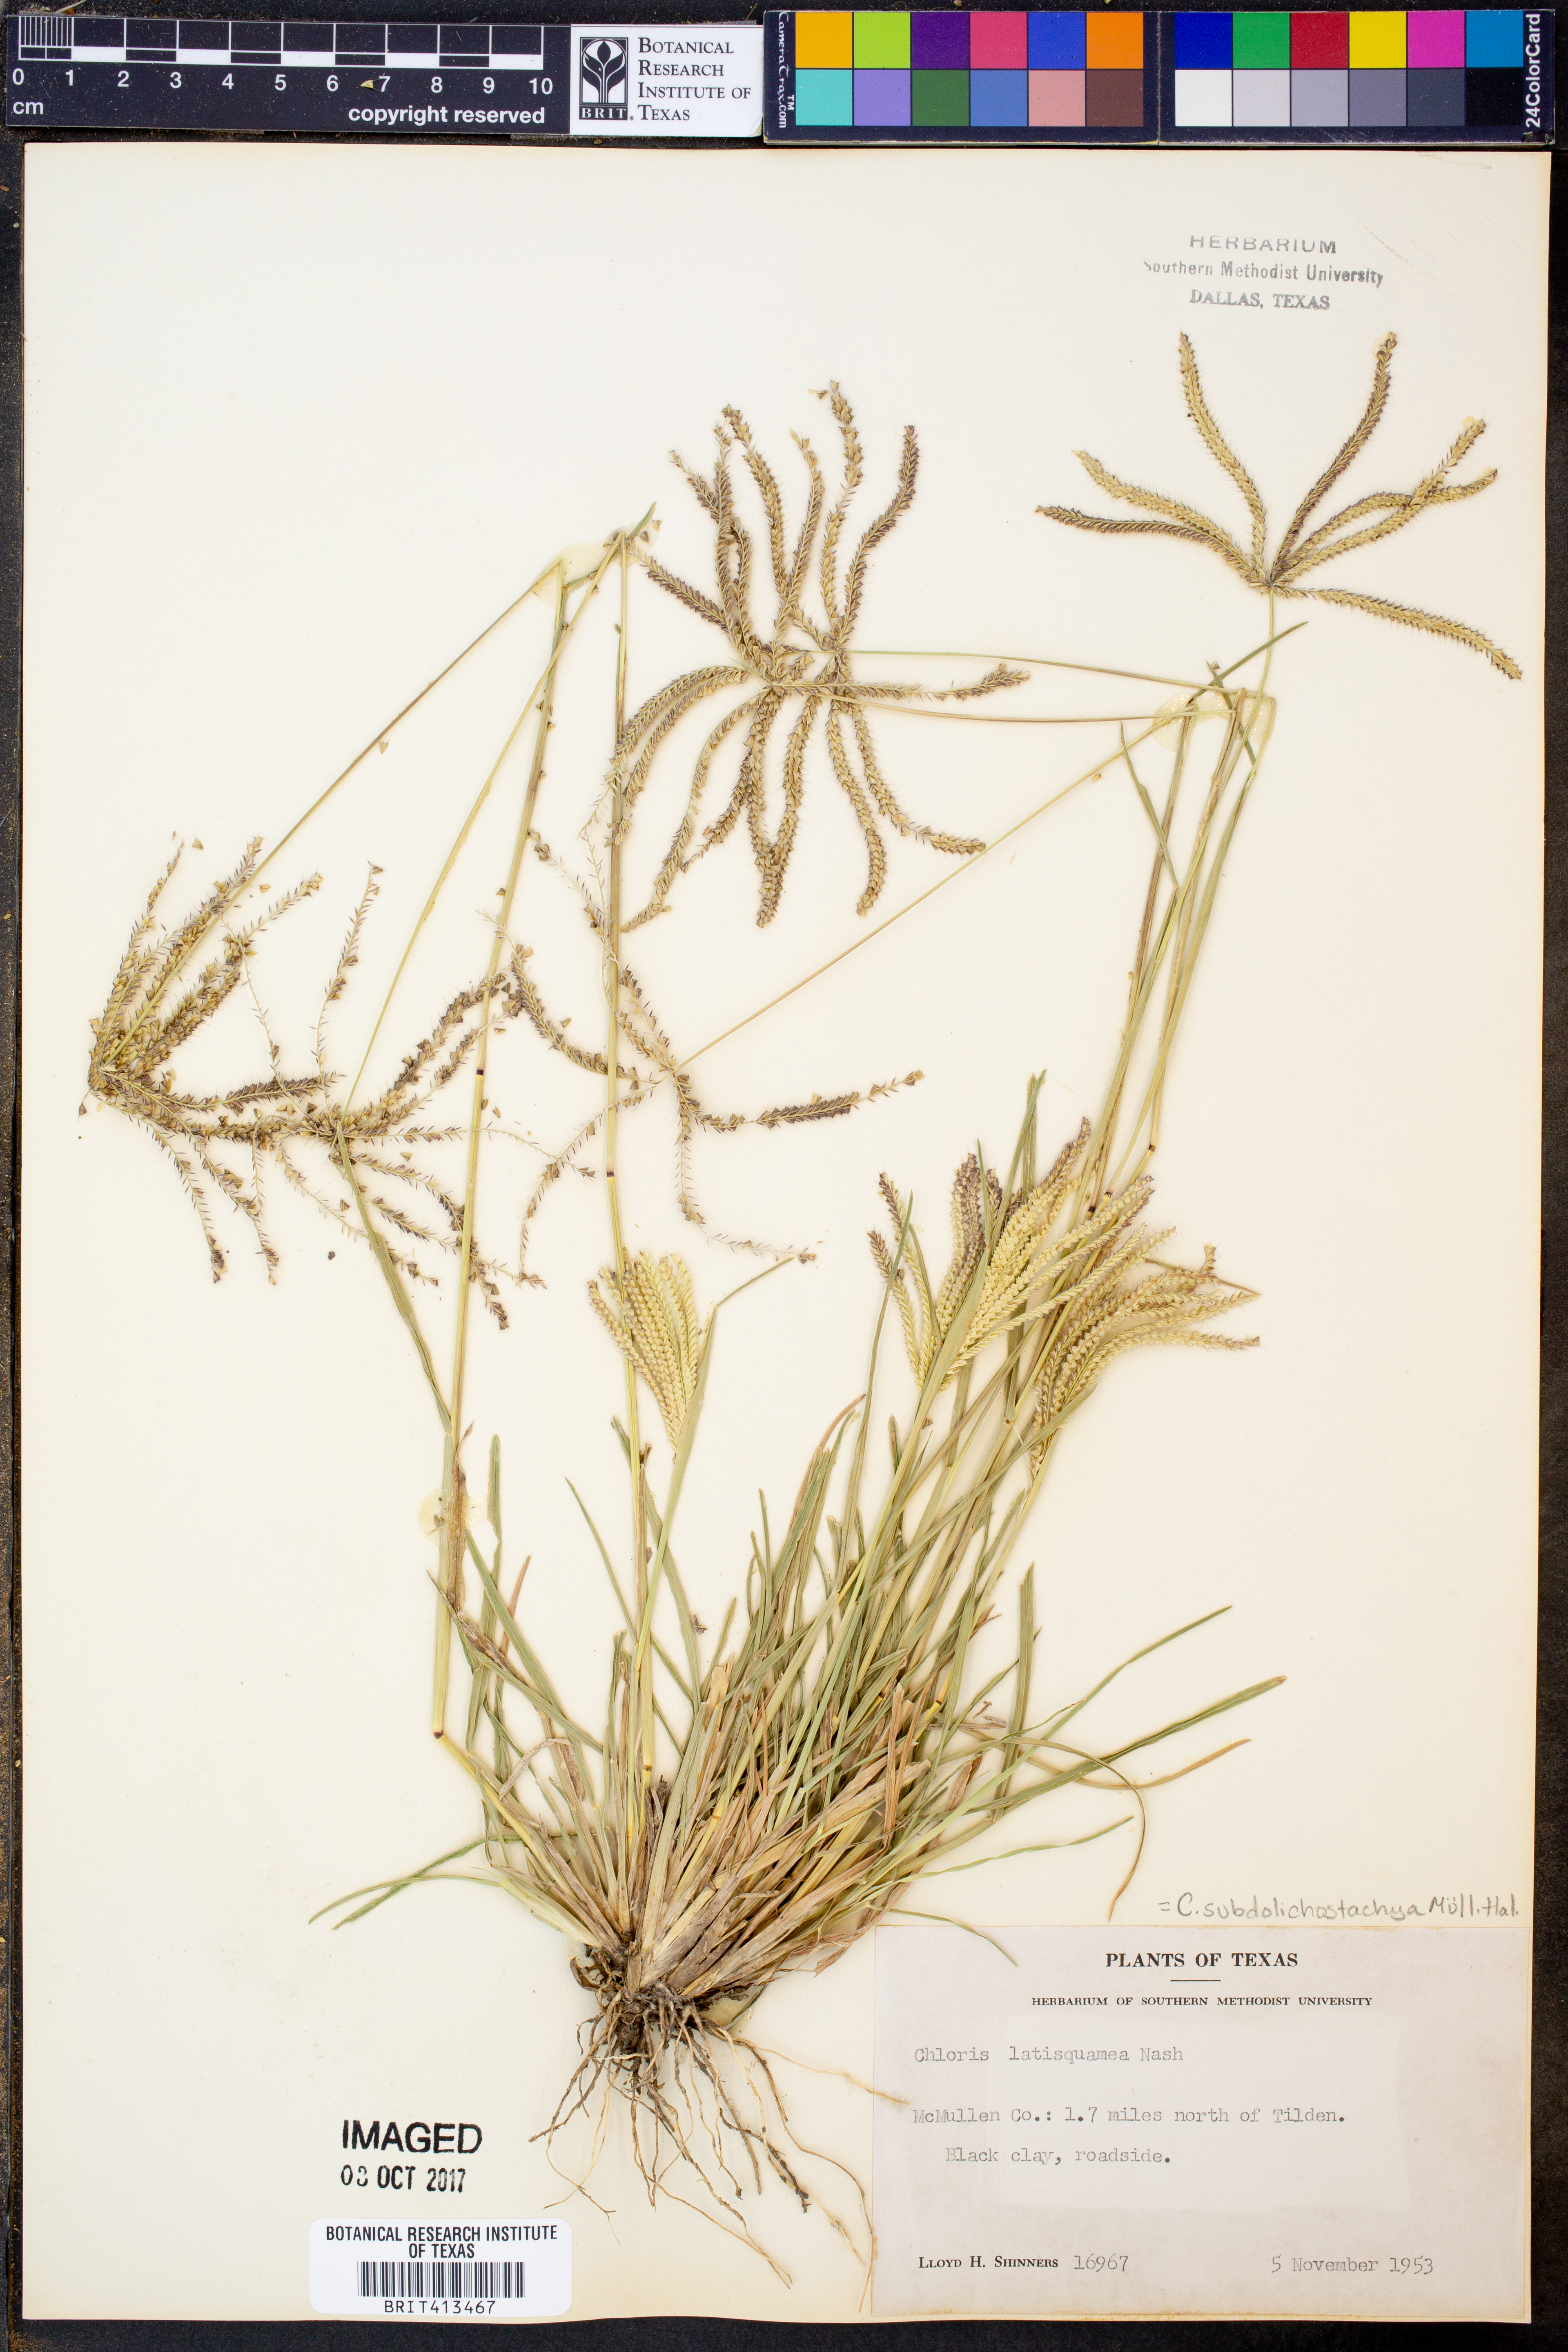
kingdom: Plantae
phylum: Tracheophyta
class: Liliopsida
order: Poales
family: Poaceae
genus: Chloris
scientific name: Chloris subdolichostachya
